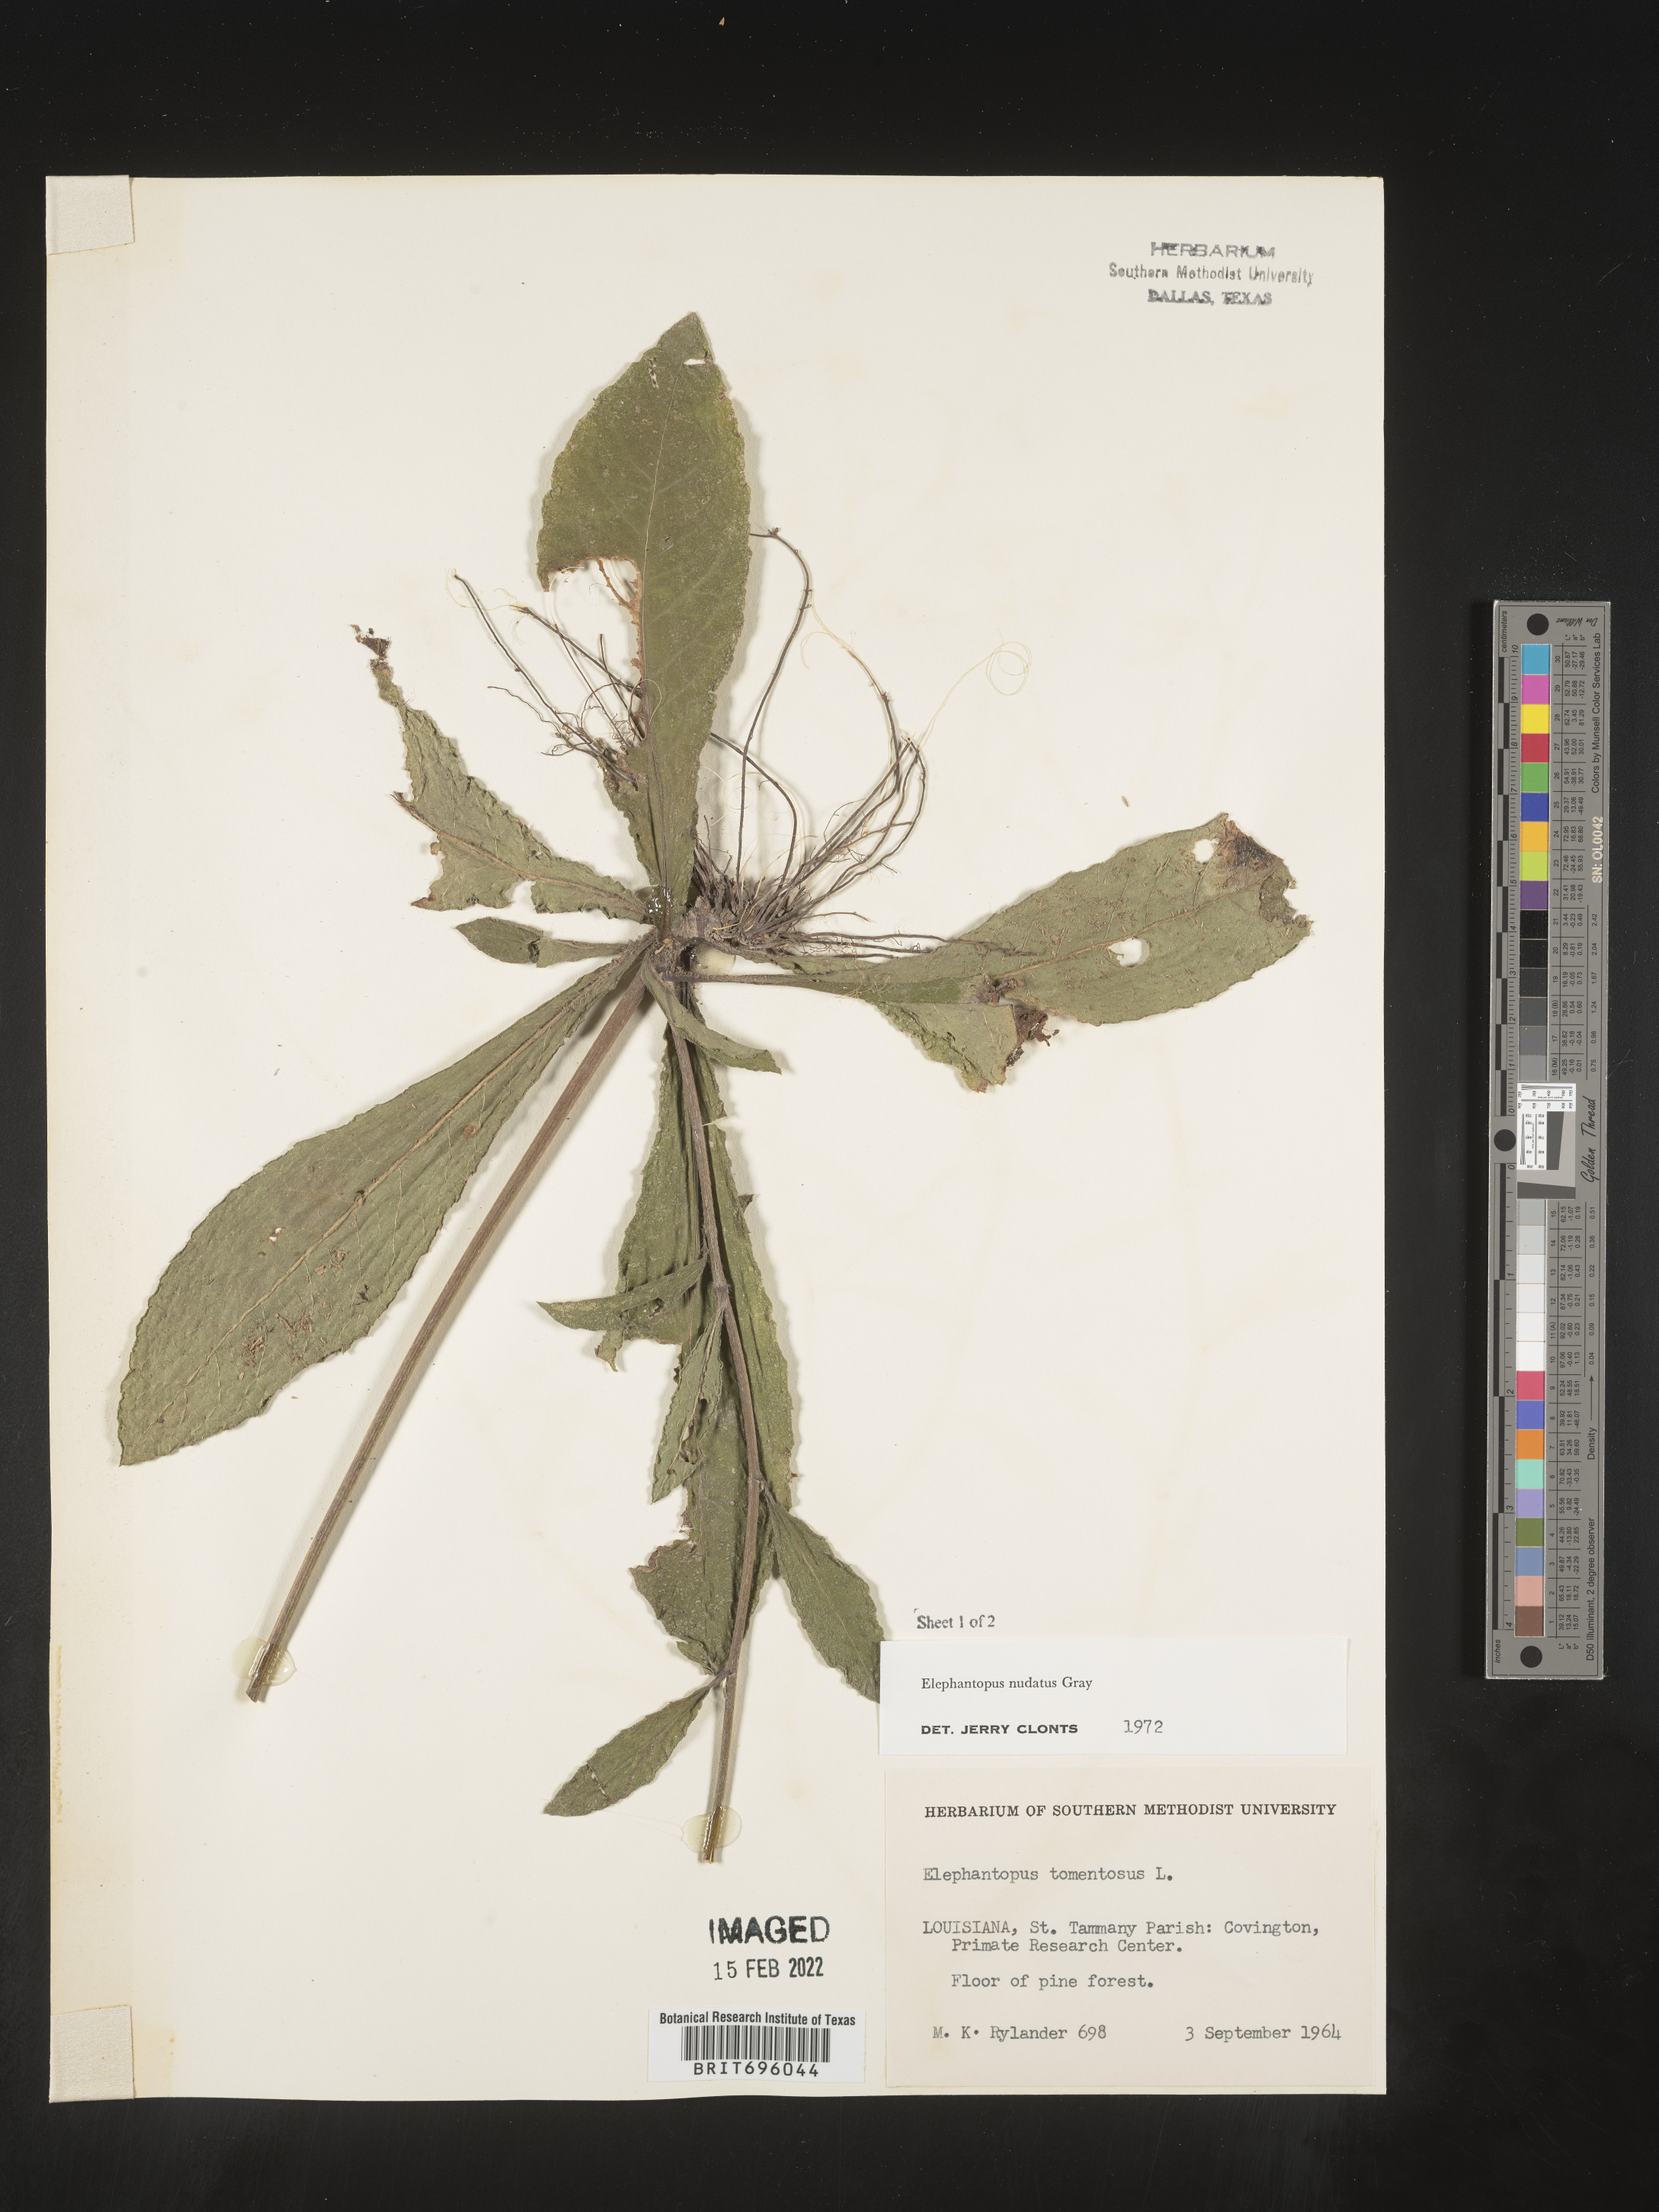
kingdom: Plantae
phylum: Tracheophyta
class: Magnoliopsida
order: Asterales
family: Asteraceae
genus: Elephantopus
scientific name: Elephantopus nudatus
